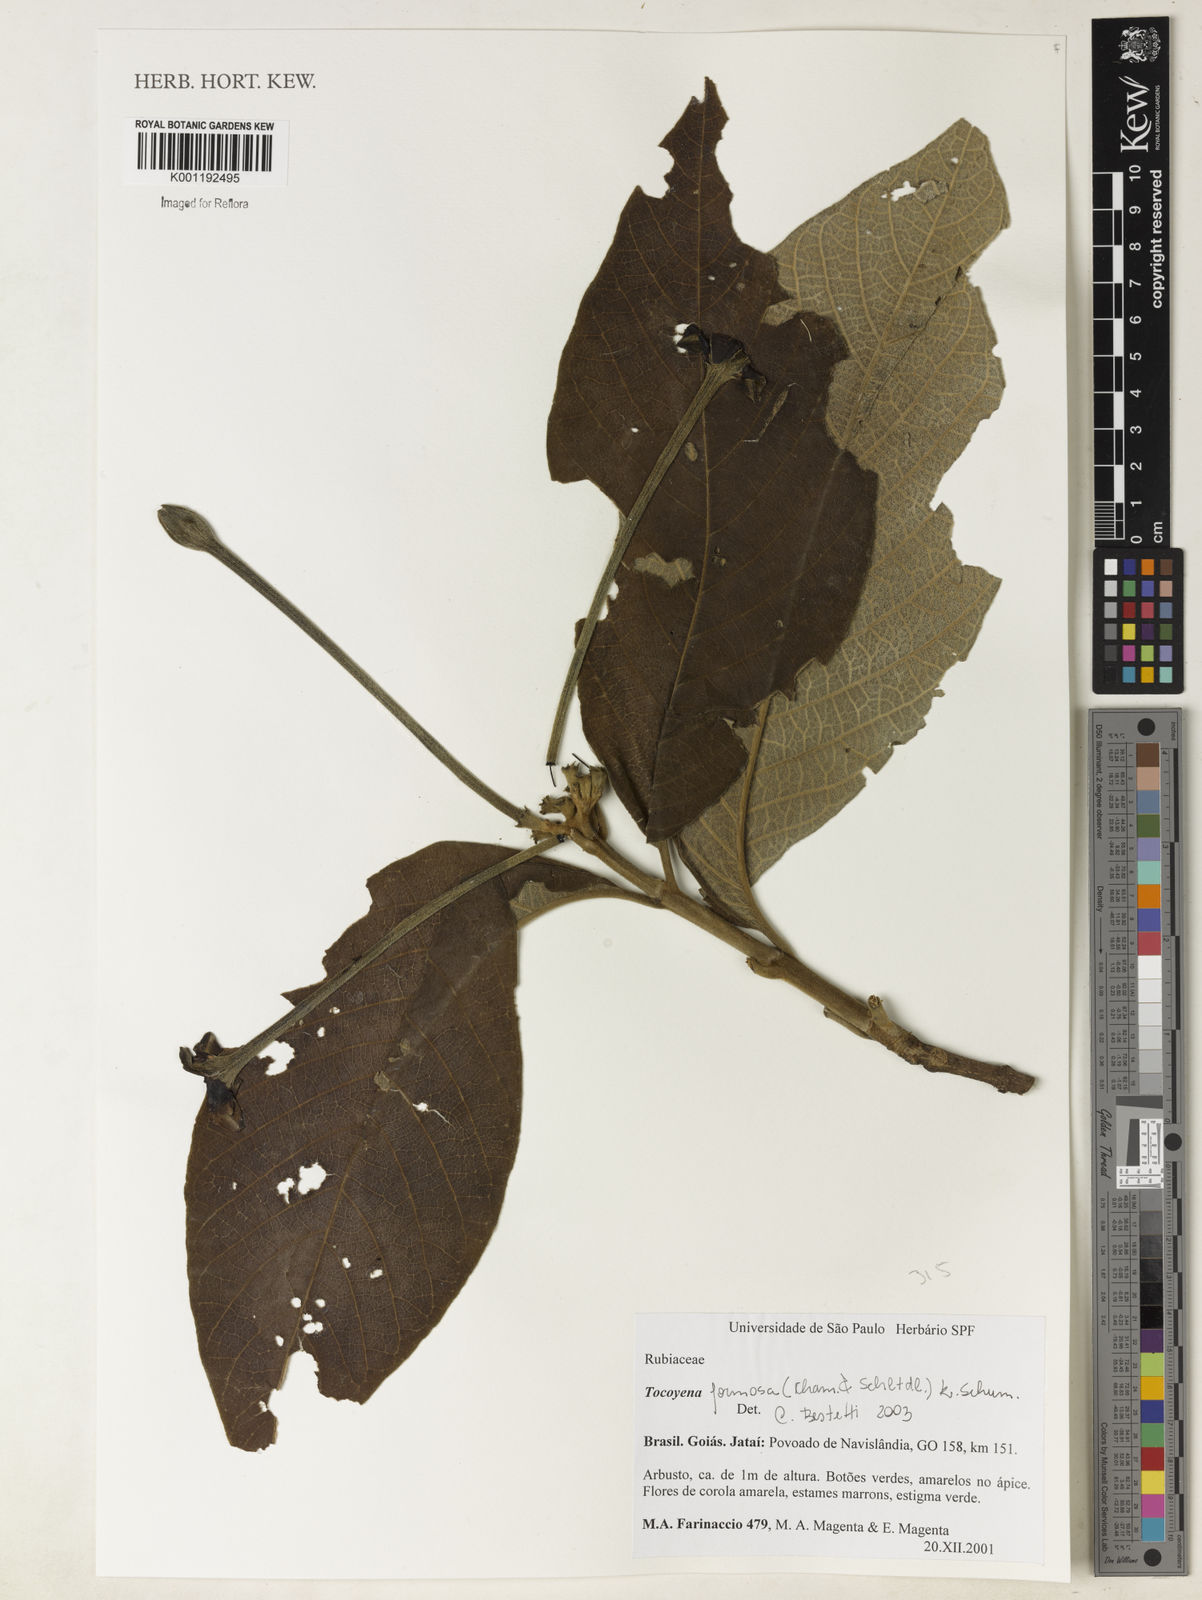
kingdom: Plantae
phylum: Tracheophyta
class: Magnoliopsida
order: Gentianales
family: Rubiaceae
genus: Tocoyena
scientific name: Tocoyena formosa
